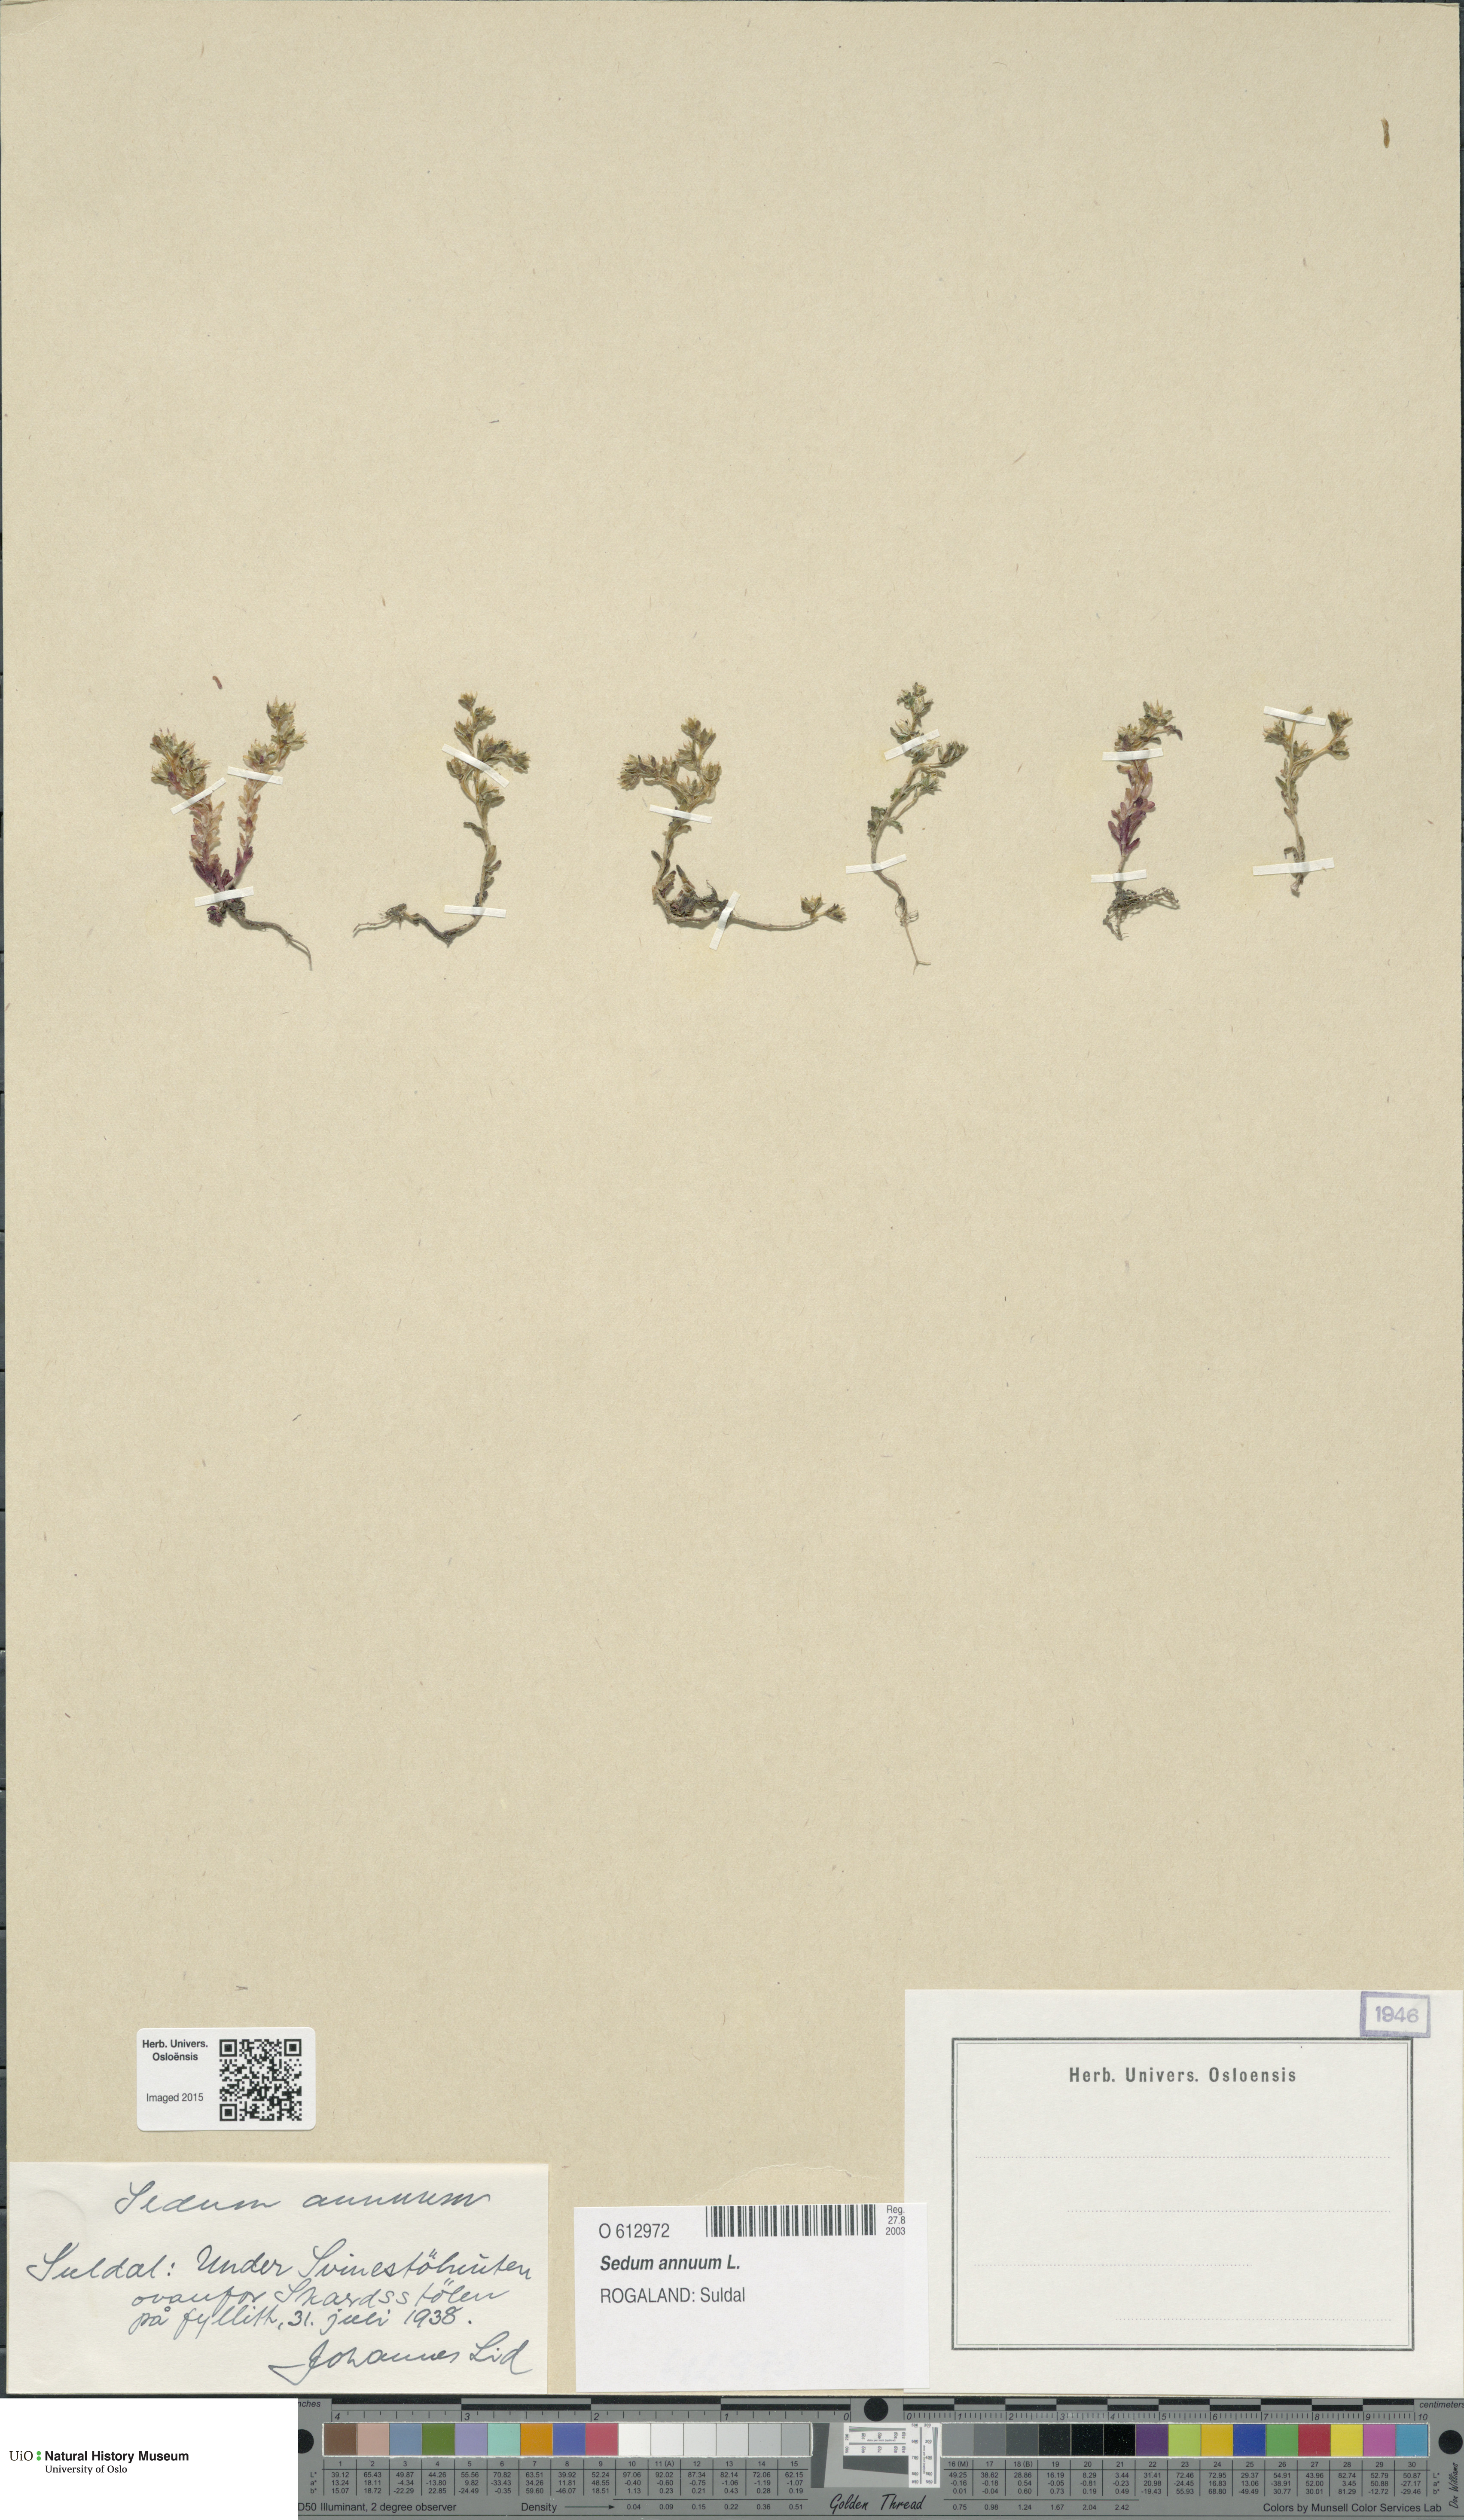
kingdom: Plantae
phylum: Tracheophyta
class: Magnoliopsida
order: Saxifragales
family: Crassulaceae
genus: Sedum
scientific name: Sedum annuum
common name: Annual stonecrop
